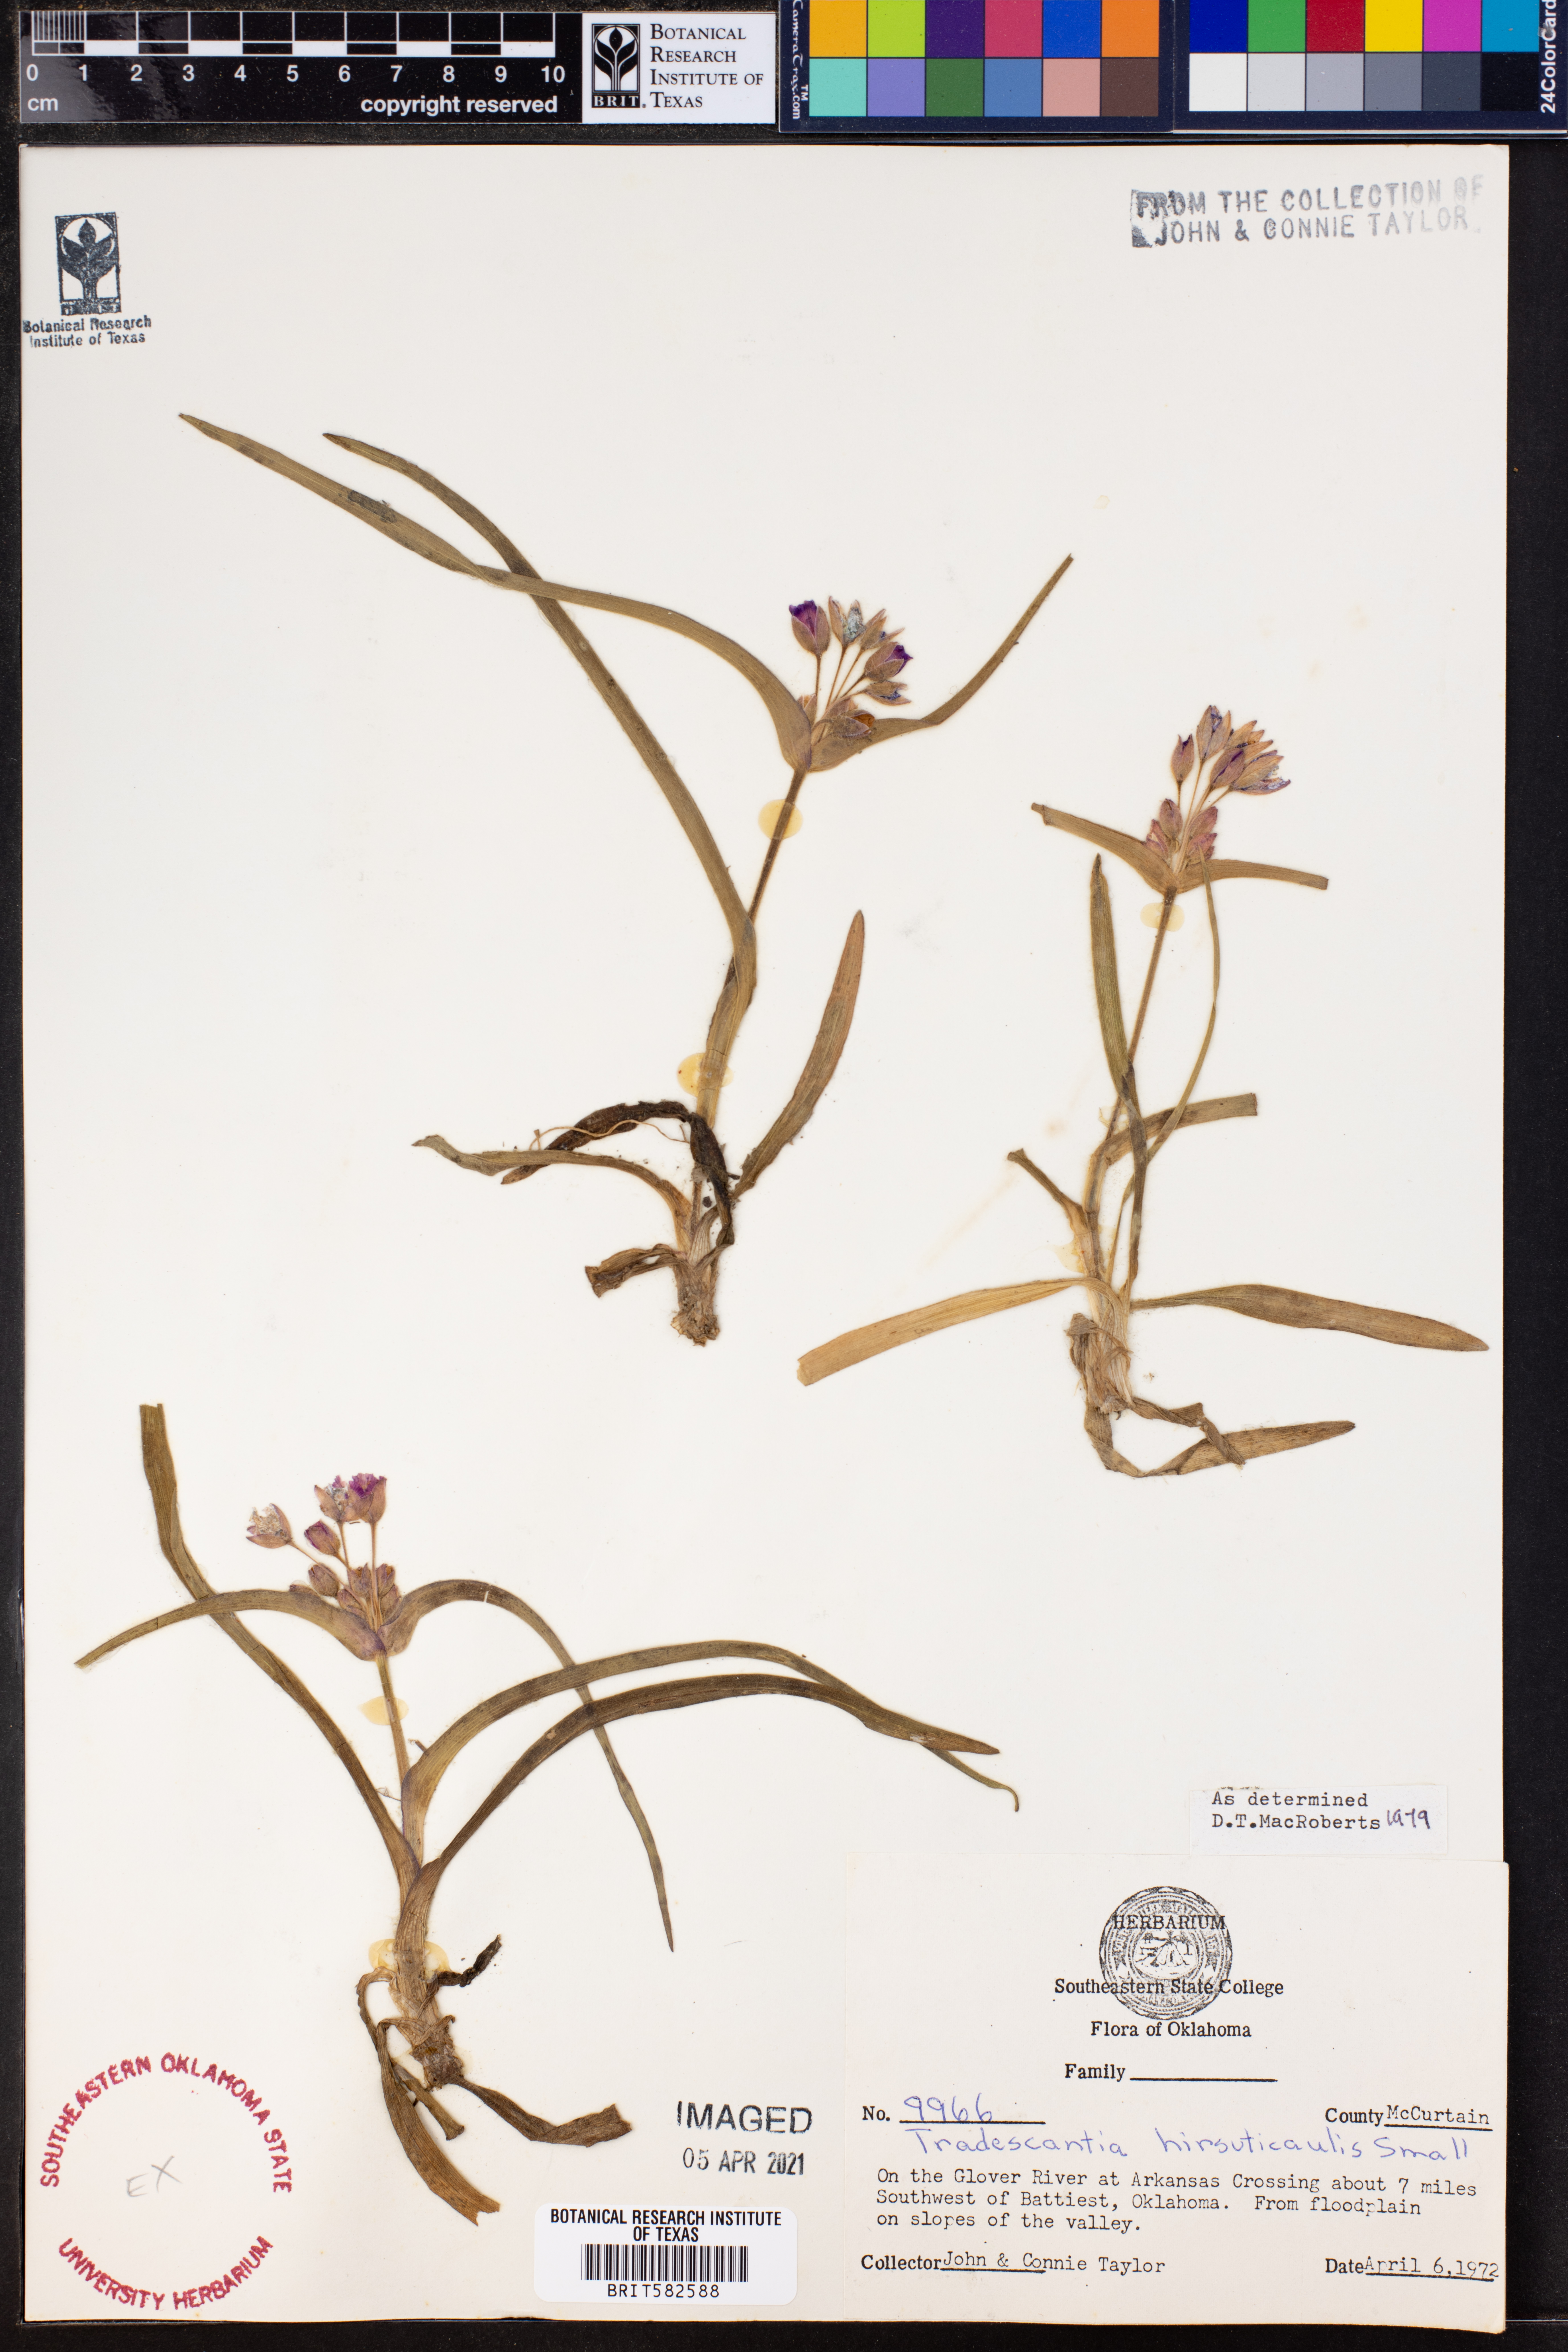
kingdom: Plantae
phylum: Tracheophyta
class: Liliopsida
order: Commelinales
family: Commelinaceae
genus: Tradescantia
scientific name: Tradescantia hirsuticaulis
